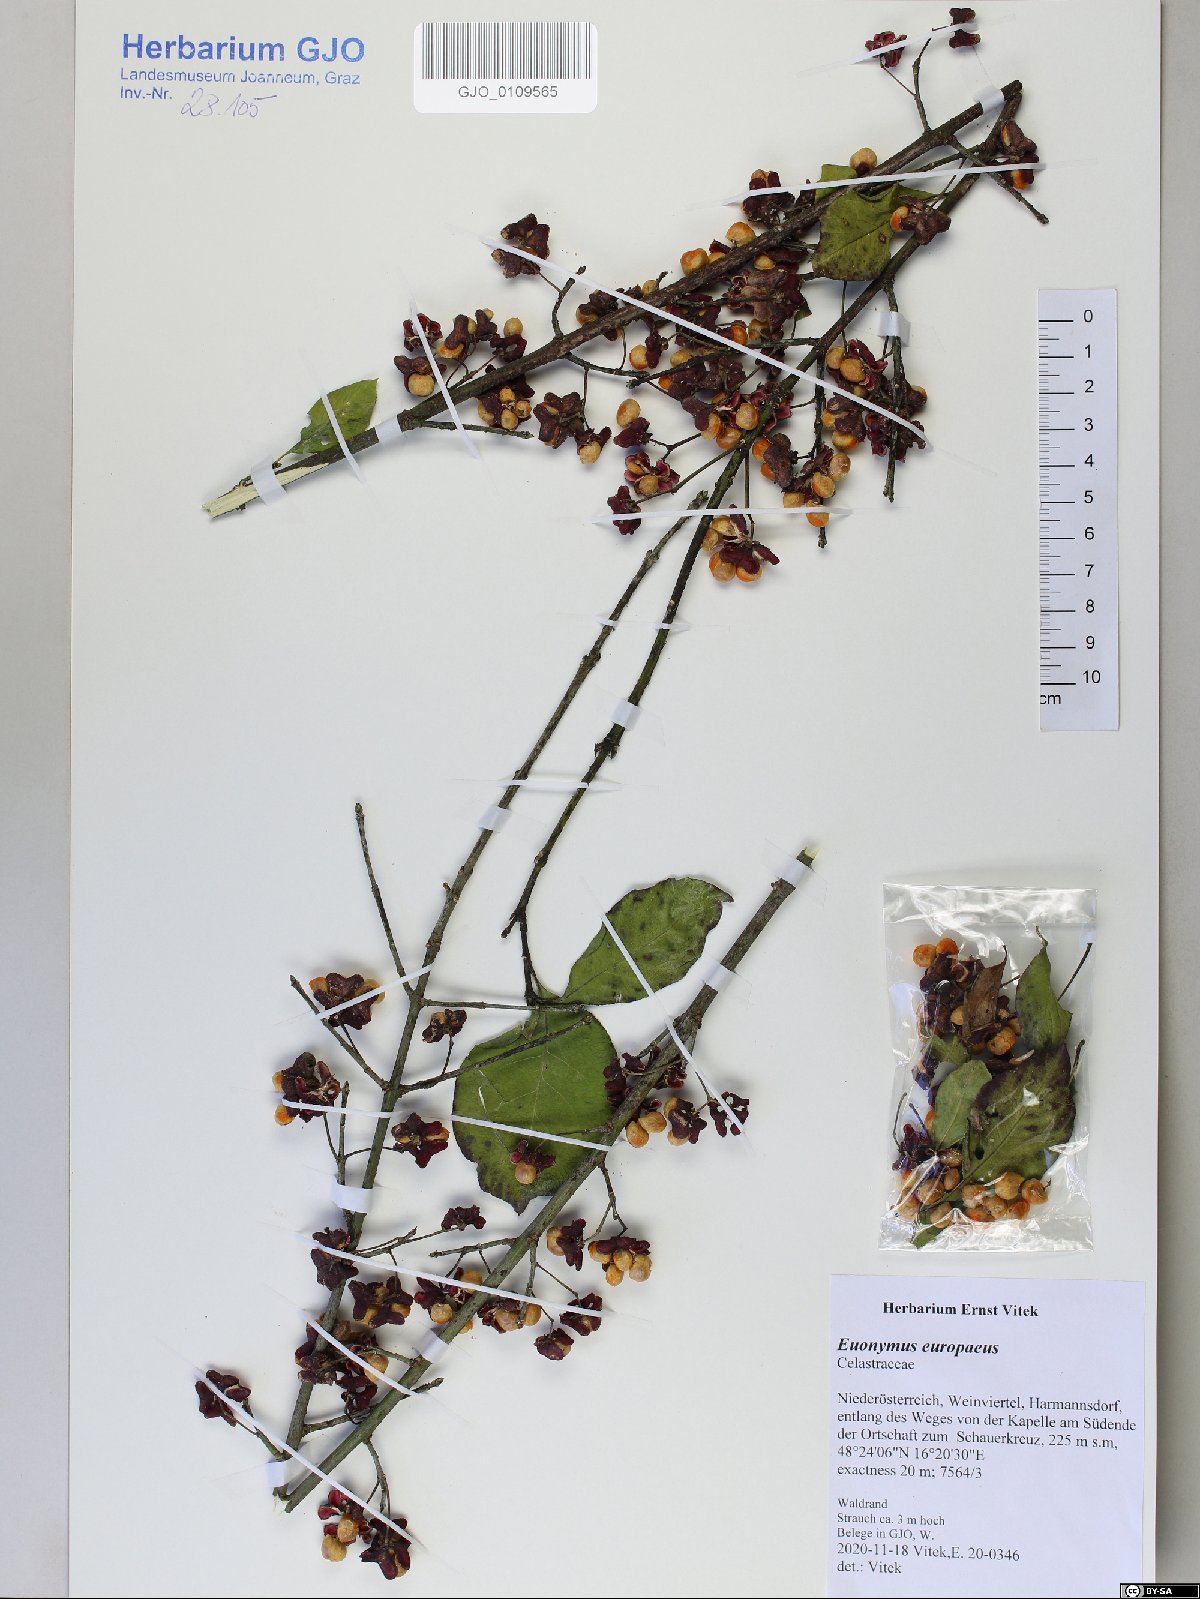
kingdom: Plantae
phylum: Tracheophyta
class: Magnoliopsida
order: Celastrales
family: Celastraceae
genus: Euonymus
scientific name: Euonymus europaeus
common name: Spindle
